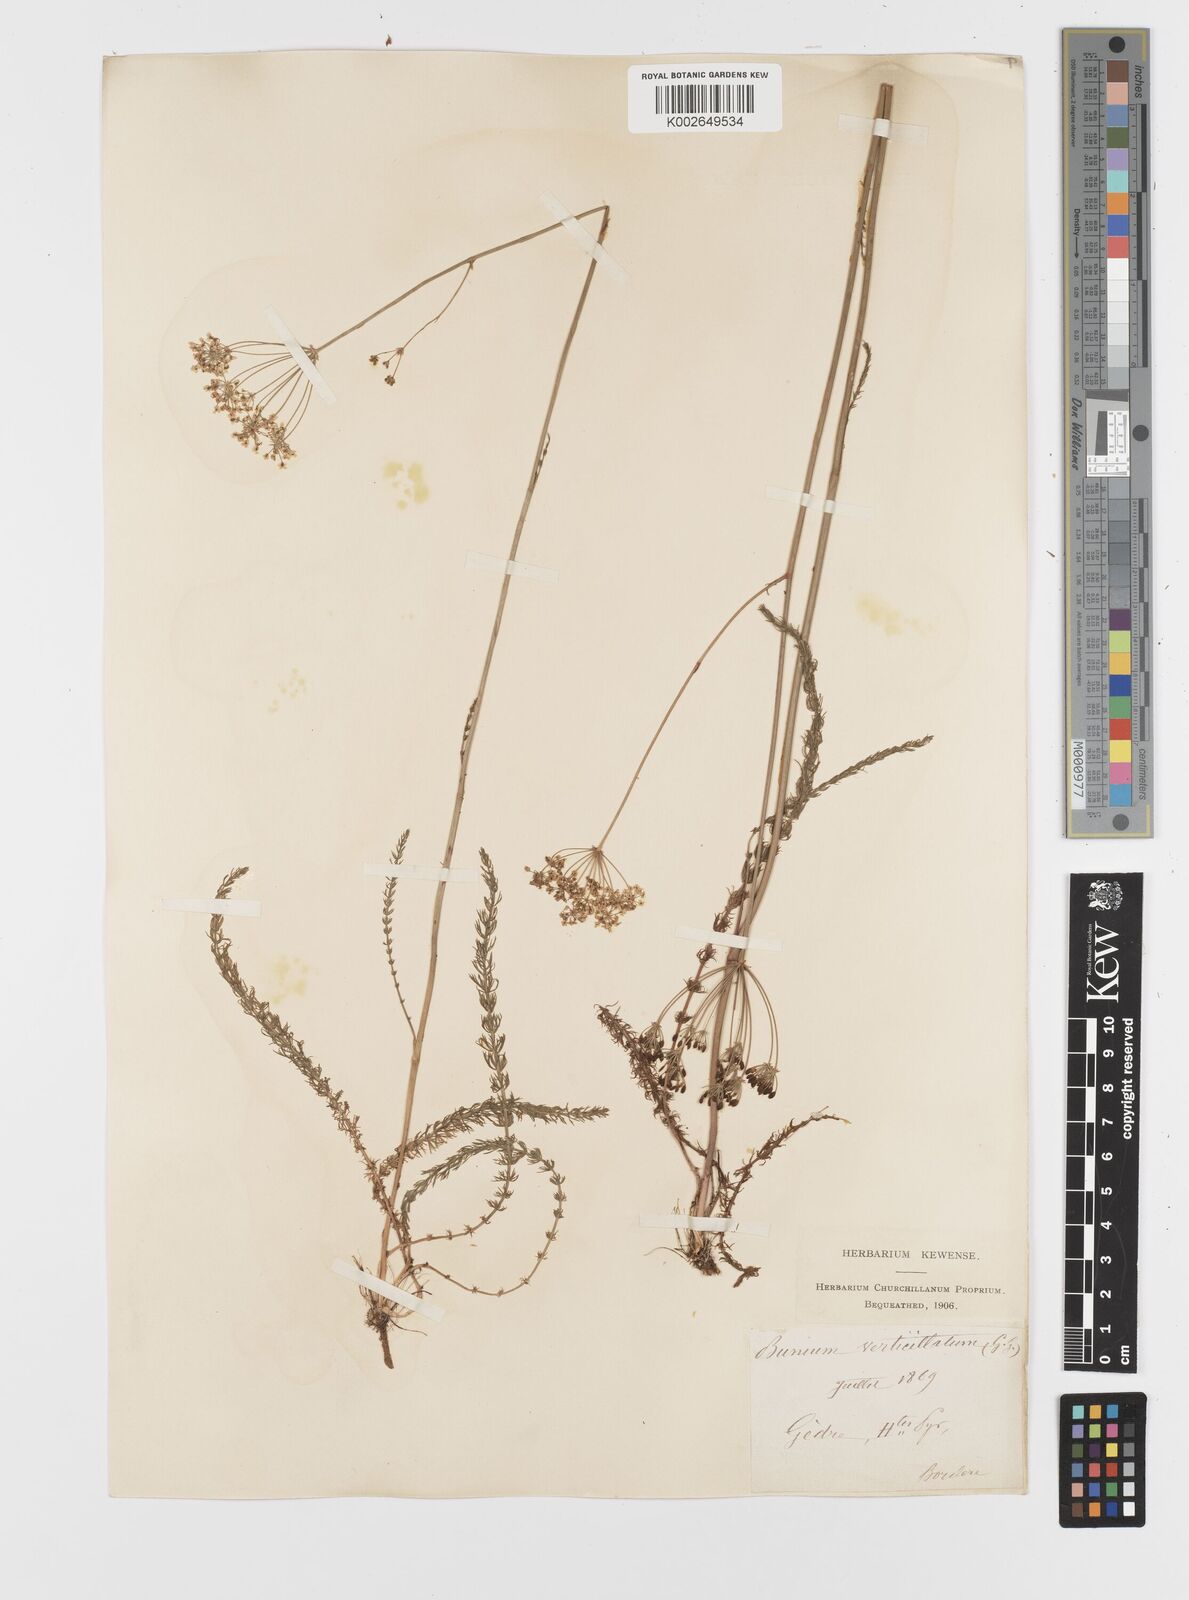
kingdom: Plantae
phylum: Tracheophyta
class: Magnoliopsida
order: Apiales
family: Apiaceae
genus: Trocdaris
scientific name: Trocdaris verticillatum
